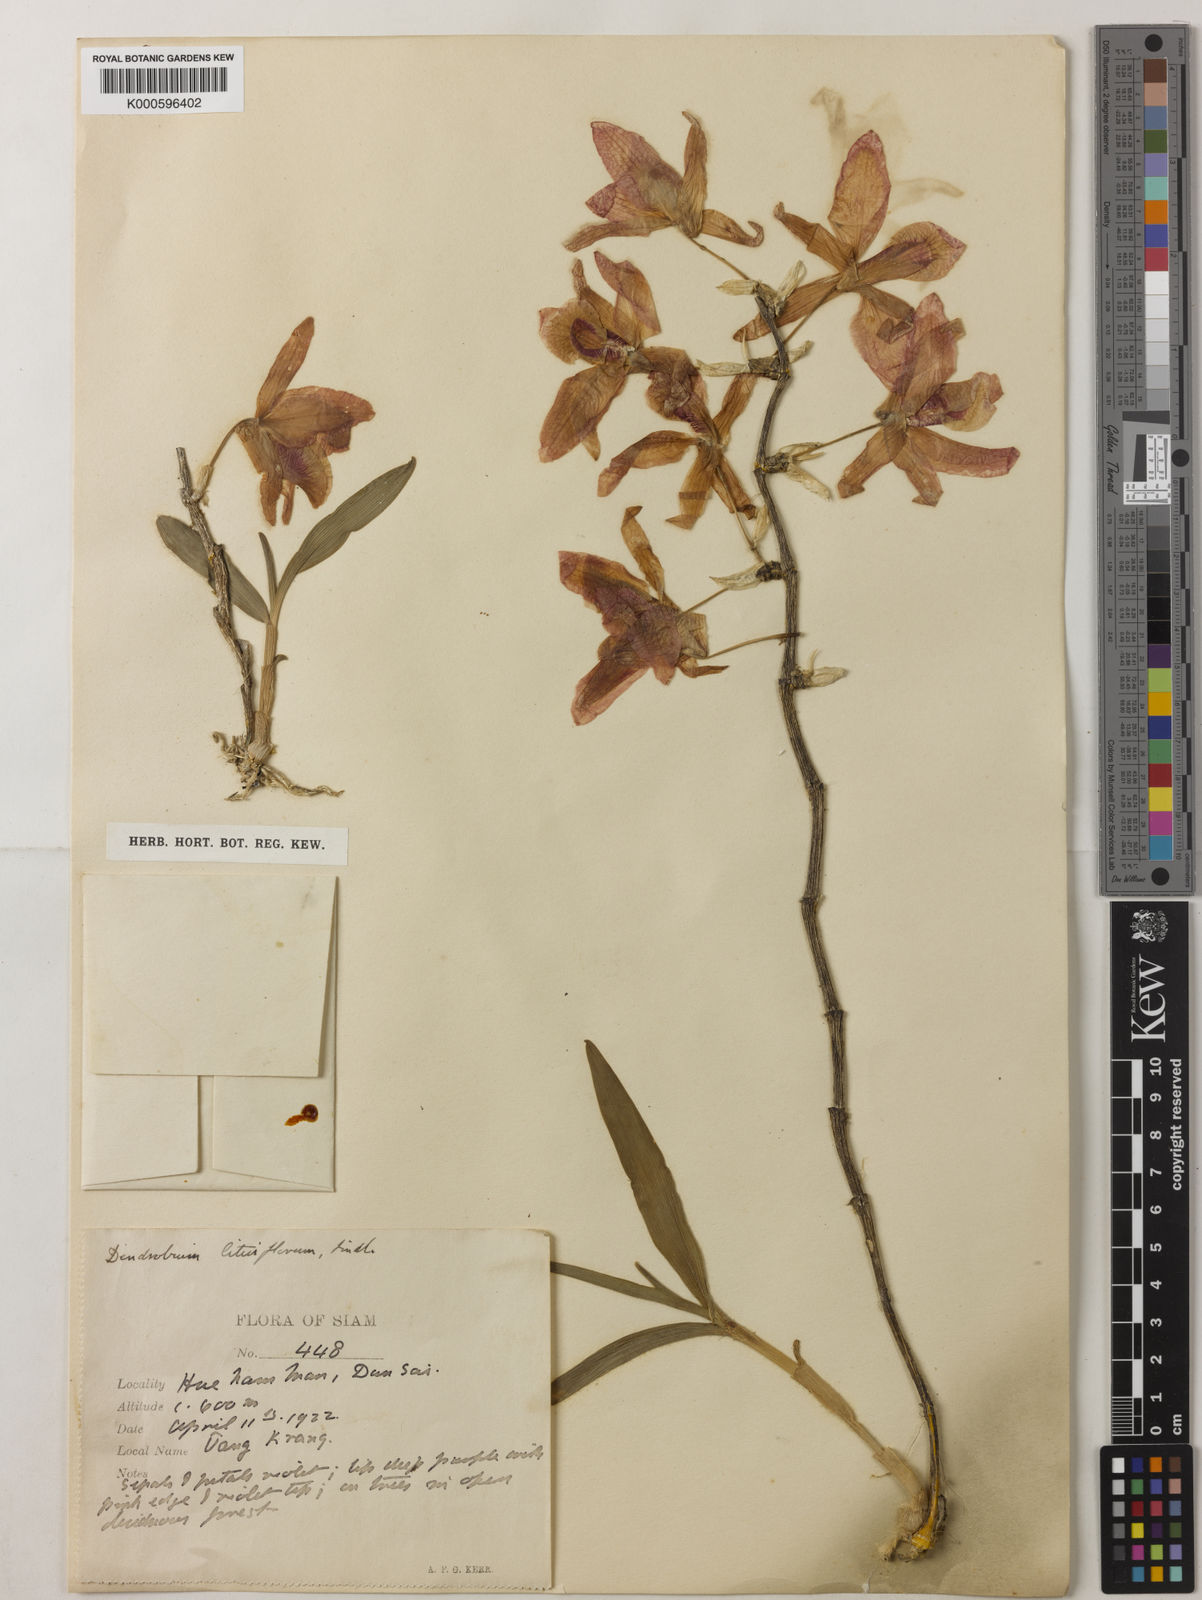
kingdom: Plantae
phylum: Tracheophyta
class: Liliopsida
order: Asparagales
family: Orchidaceae
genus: Dendrobium
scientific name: Dendrobium lituiflorum
